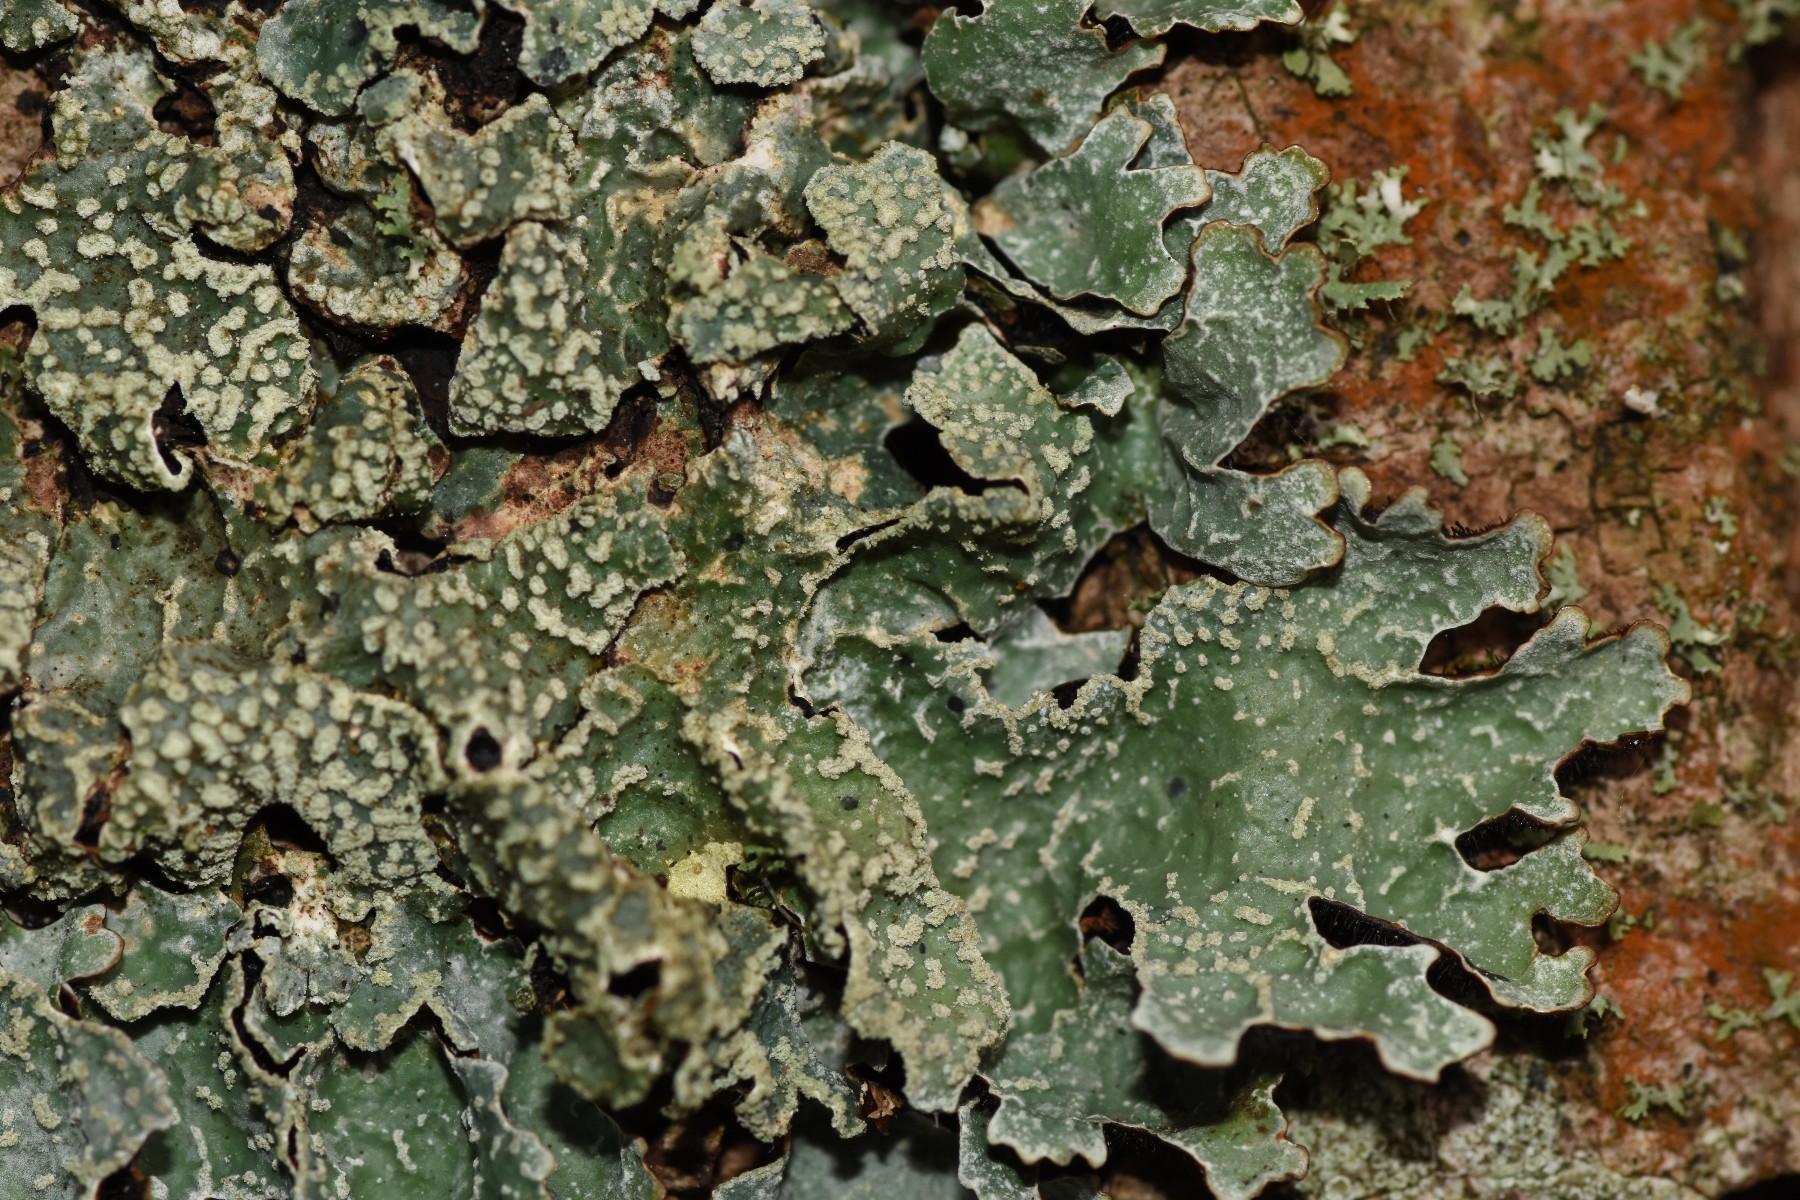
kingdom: Fungi
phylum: Ascomycota
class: Lecanoromycetes
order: Lecanorales
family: Parmeliaceae
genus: Parmelia
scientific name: Parmelia sulcata
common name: rynket skållav
